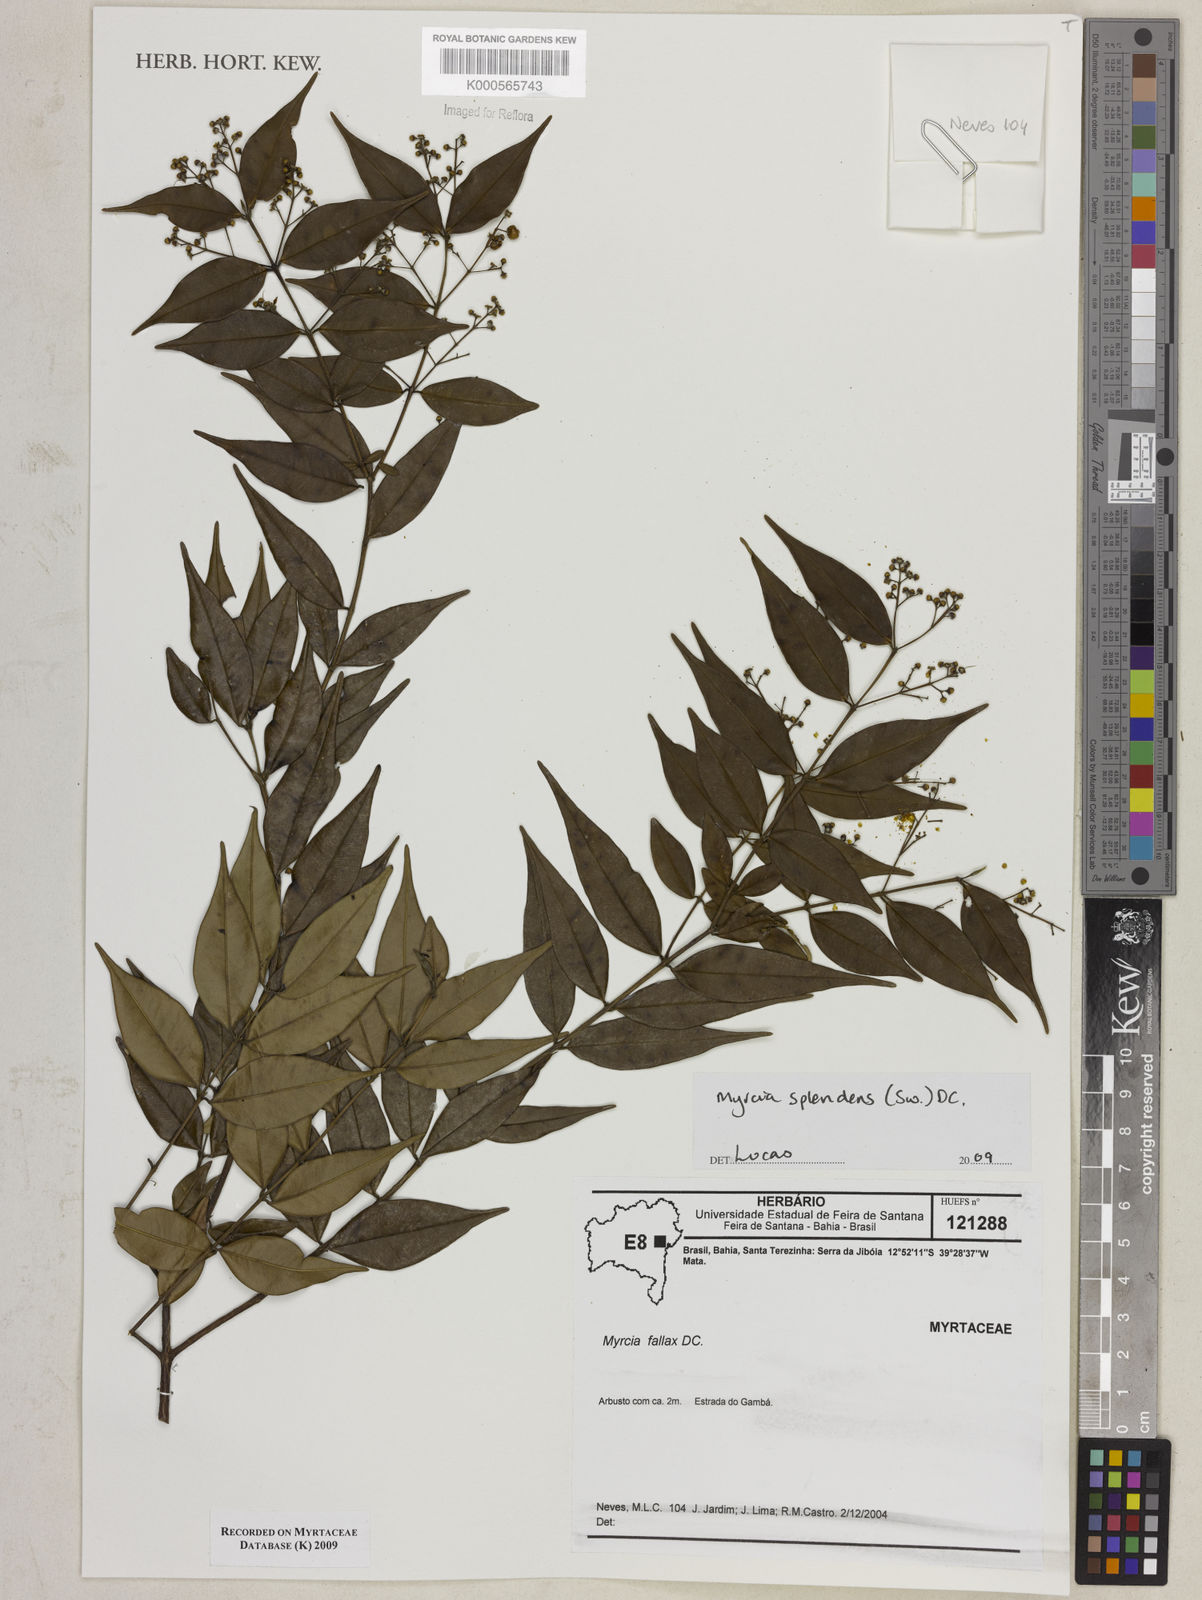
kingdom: Plantae
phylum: Tracheophyta
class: Magnoliopsida
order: Myrtales
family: Myrtaceae
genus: Myrcia
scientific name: Myrcia splendens
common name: Surinam cherry
